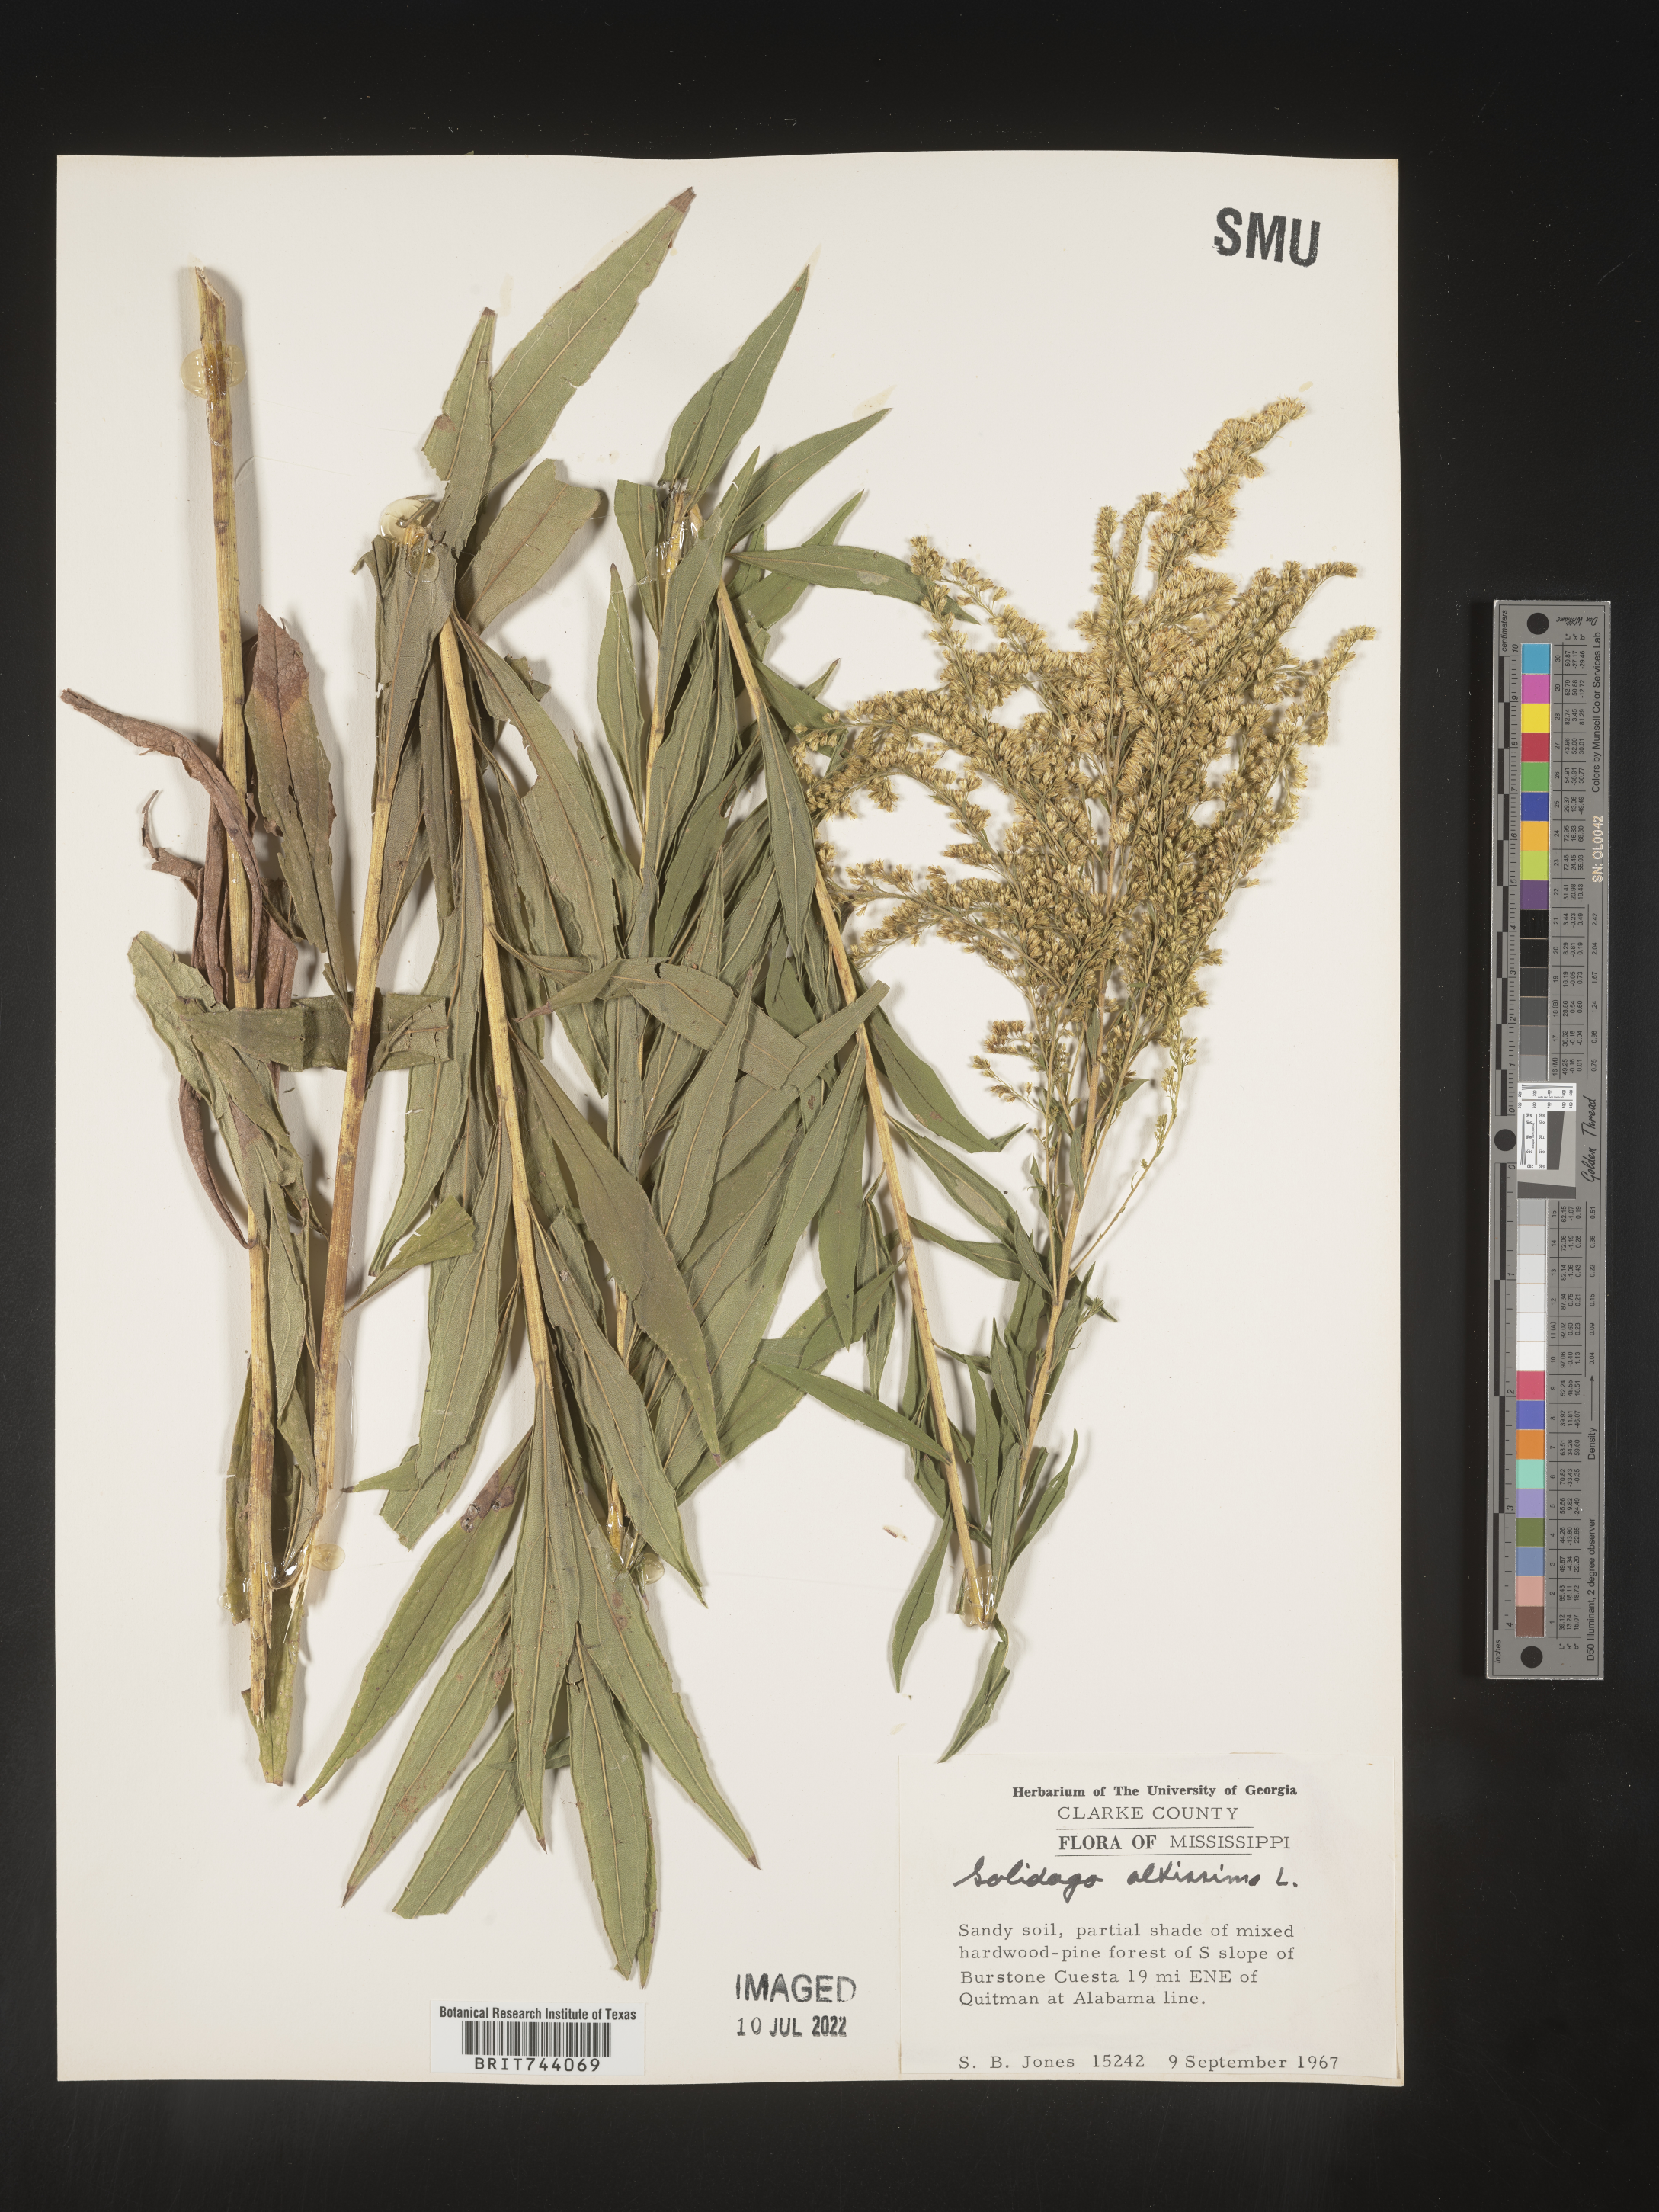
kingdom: Plantae
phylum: Tracheophyta
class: Magnoliopsida
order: Asterales
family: Asteraceae
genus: Solidago
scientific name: Solidago altissima
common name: Late goldenrod
